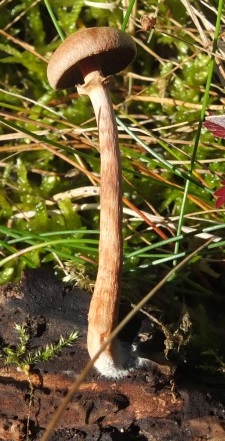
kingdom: Fungi
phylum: Basidiomycota
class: Agaricomycetes
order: Agaricales
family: Tubariaceae
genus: Tubaria
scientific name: Tubaria confragosa
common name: ring-fnughat
